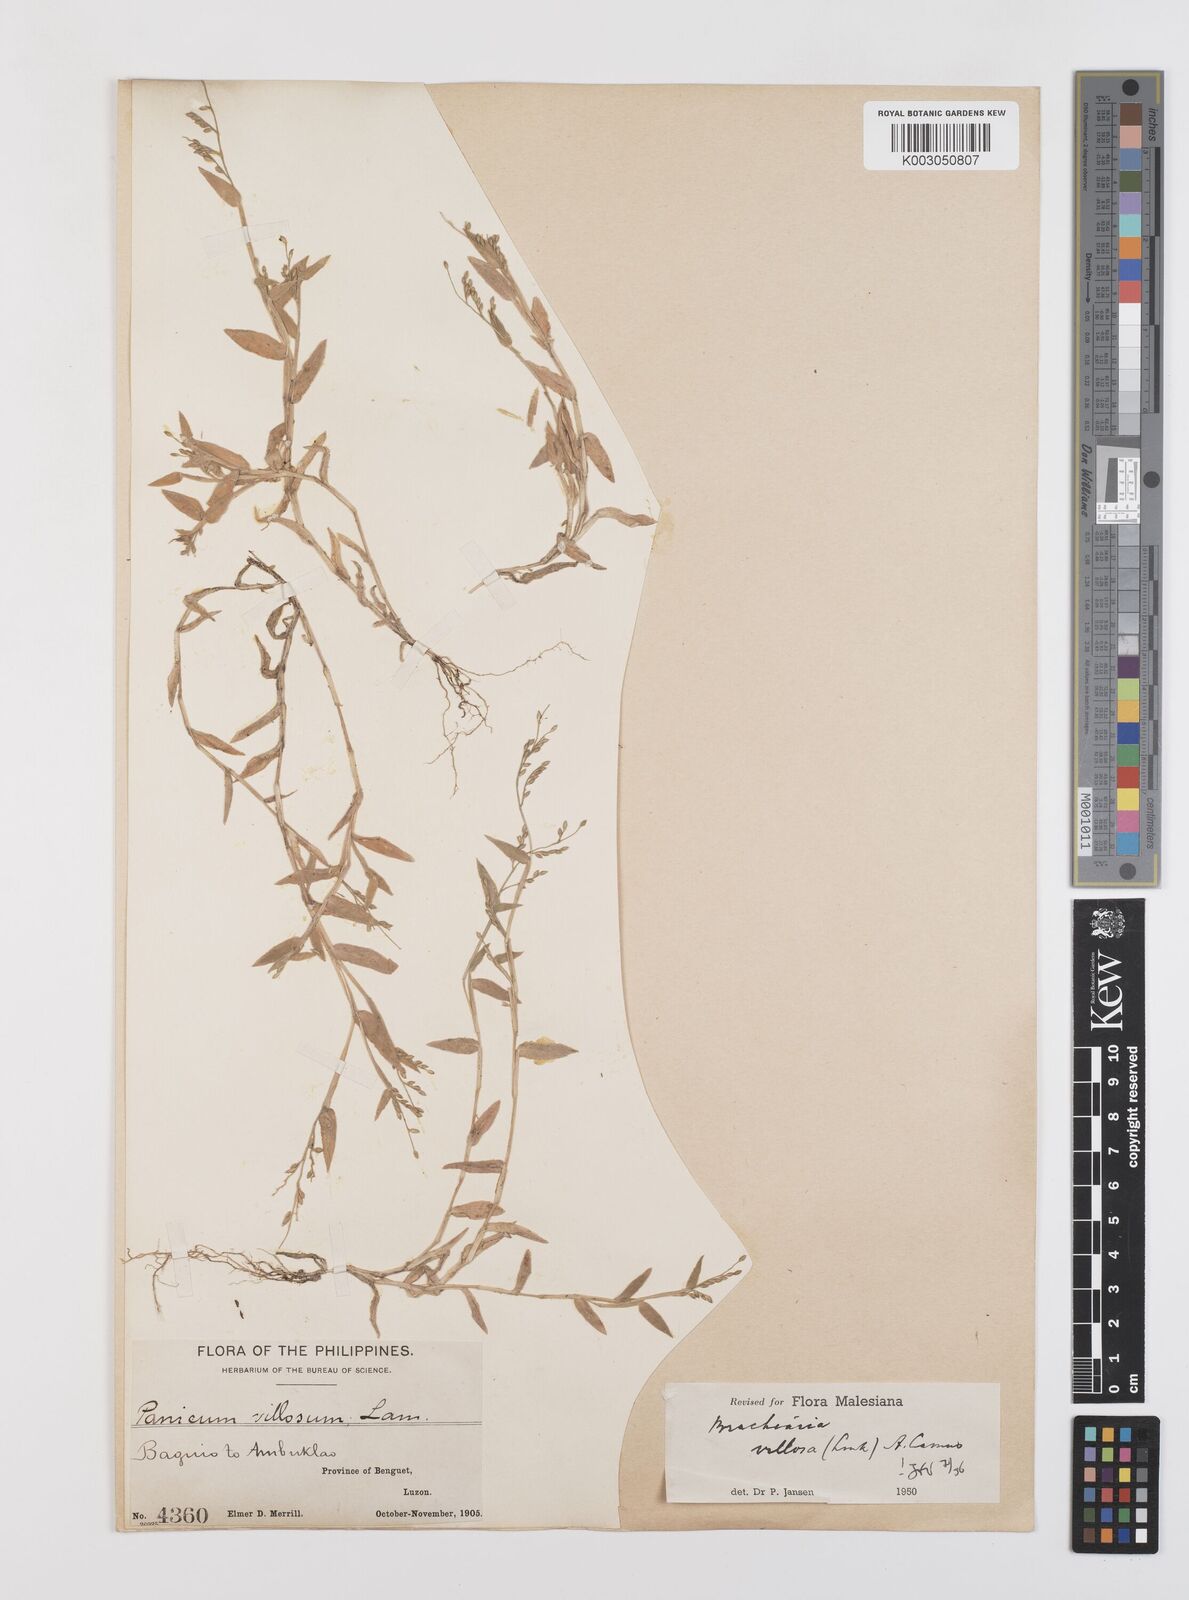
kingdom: Plantae
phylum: Tracheophyta
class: Liliopsida
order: Poales
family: Poaceae
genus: Urochloa
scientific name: Urochloa villosa
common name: Hairy signalgrass
